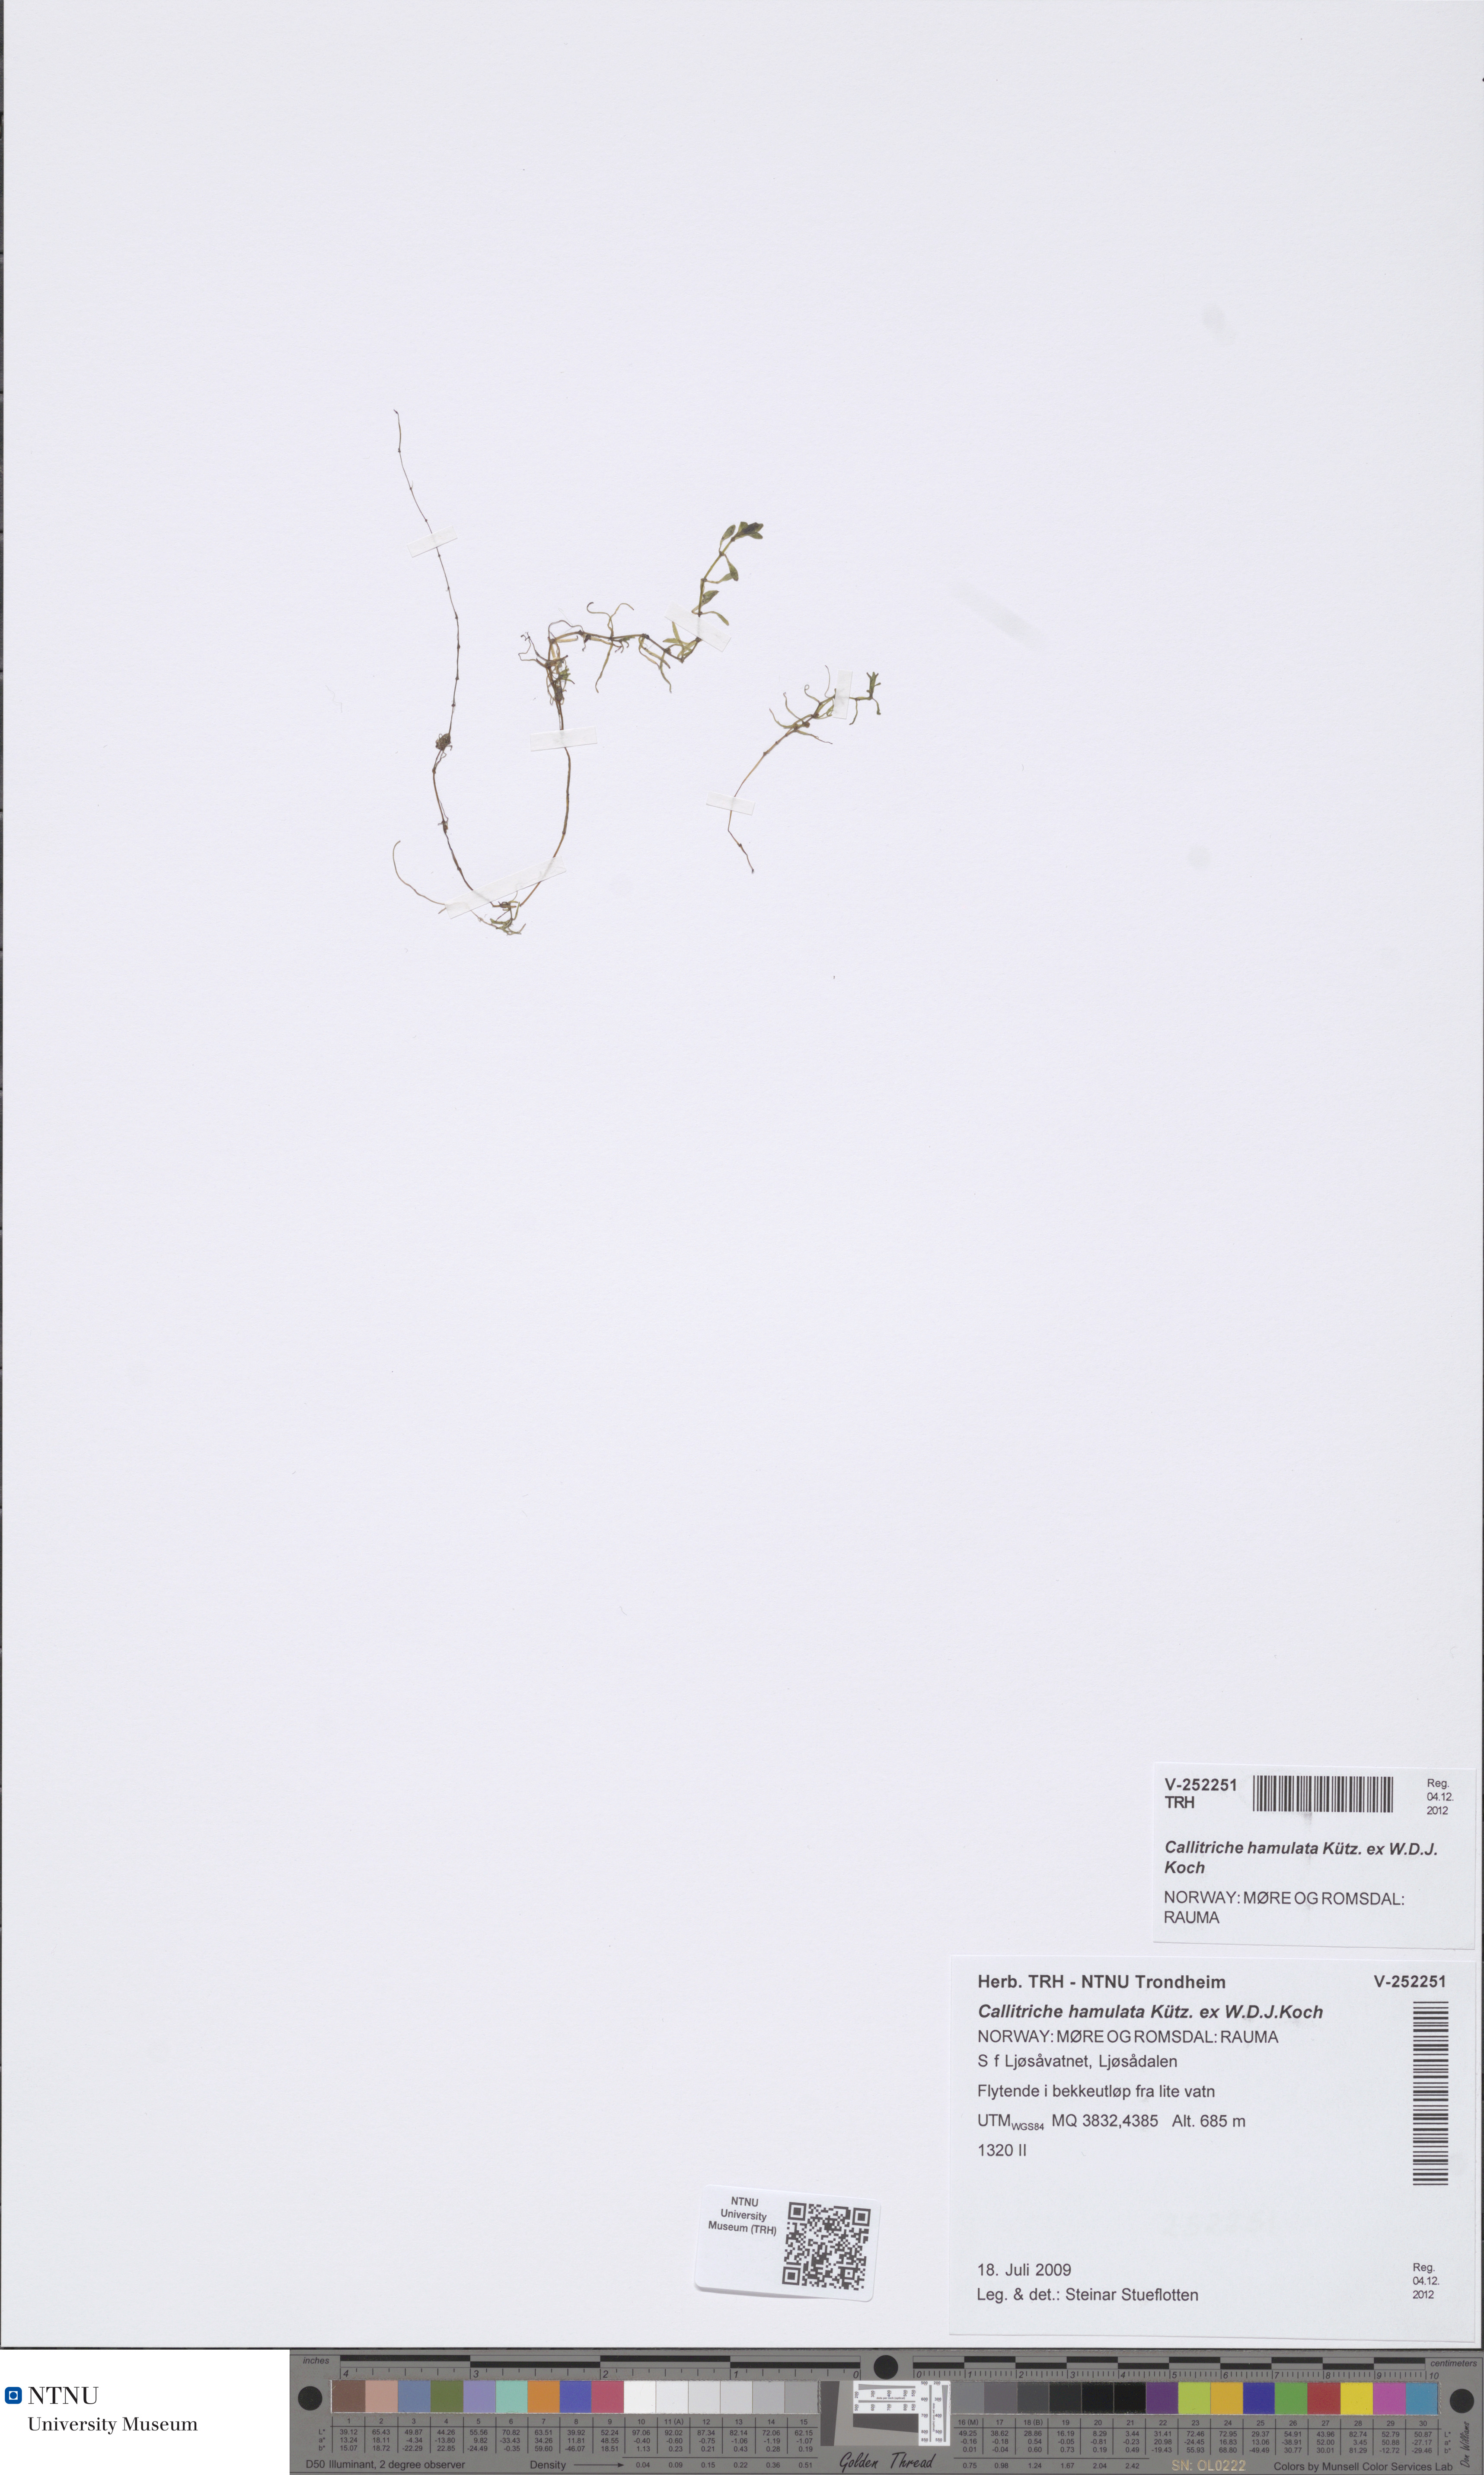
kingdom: Plantae
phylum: Tracheophyta
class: Magnoliopsida
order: Lamiales
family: Plantaginaceae
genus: Callitriche
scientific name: Callitriche hamulata
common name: Intermediate water-starwort
